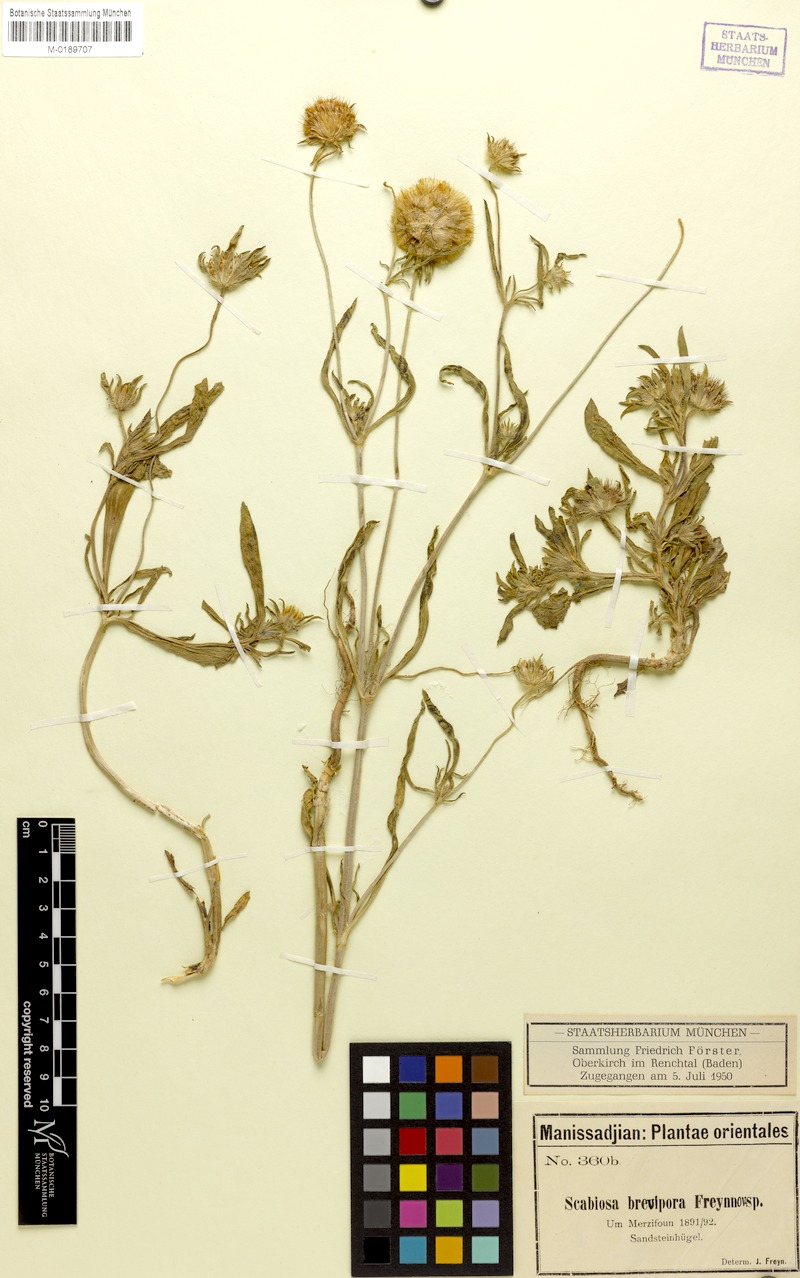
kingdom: Plantae
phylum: Tracheophyta
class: Magnoliopsida
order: Dipsacales
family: Caprifoliaceae
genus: Lomelosia
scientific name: Lomelosia micrantha
